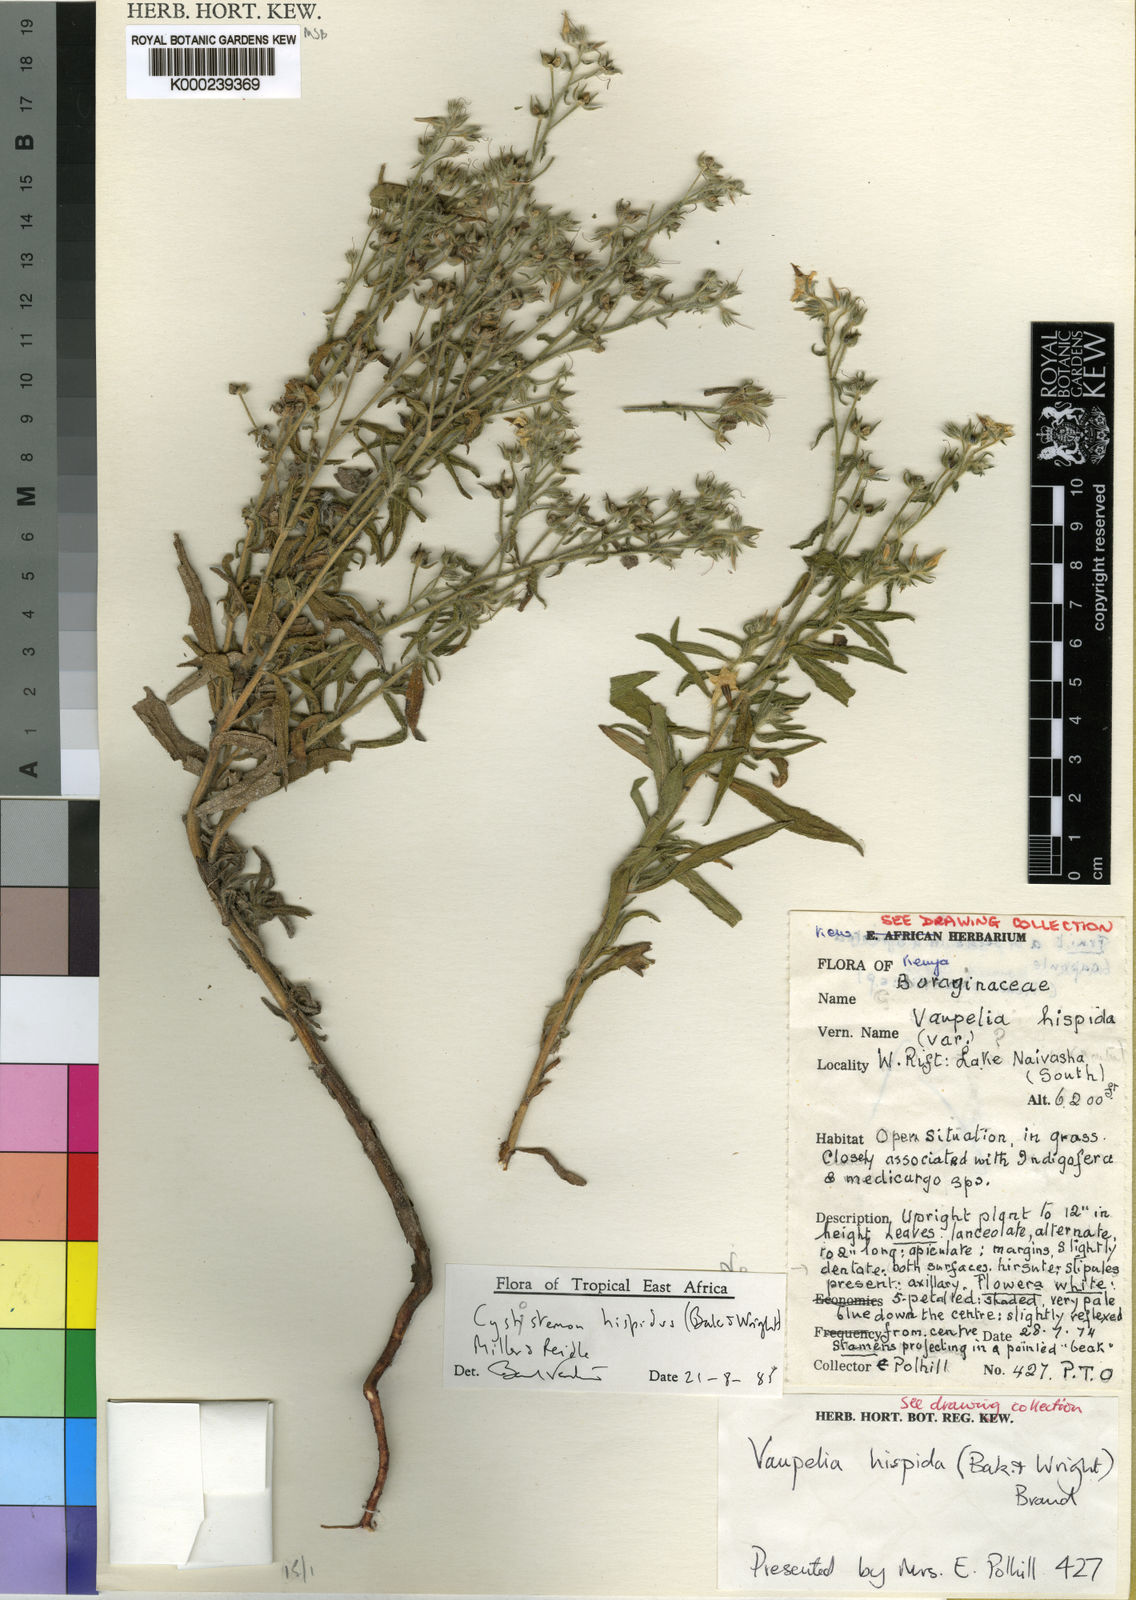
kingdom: Plantae
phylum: Tracheophyta
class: Magnoliopsida
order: Boraginales
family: Boraginaceae
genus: Cystostemon
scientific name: Cystostemon hispidus
